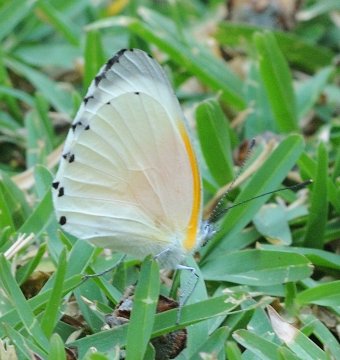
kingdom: Animalia
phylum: Arthropoda
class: Insecta
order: Lepidoptera
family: Pieridae
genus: Mylothris
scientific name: Mylothris rueppellii
